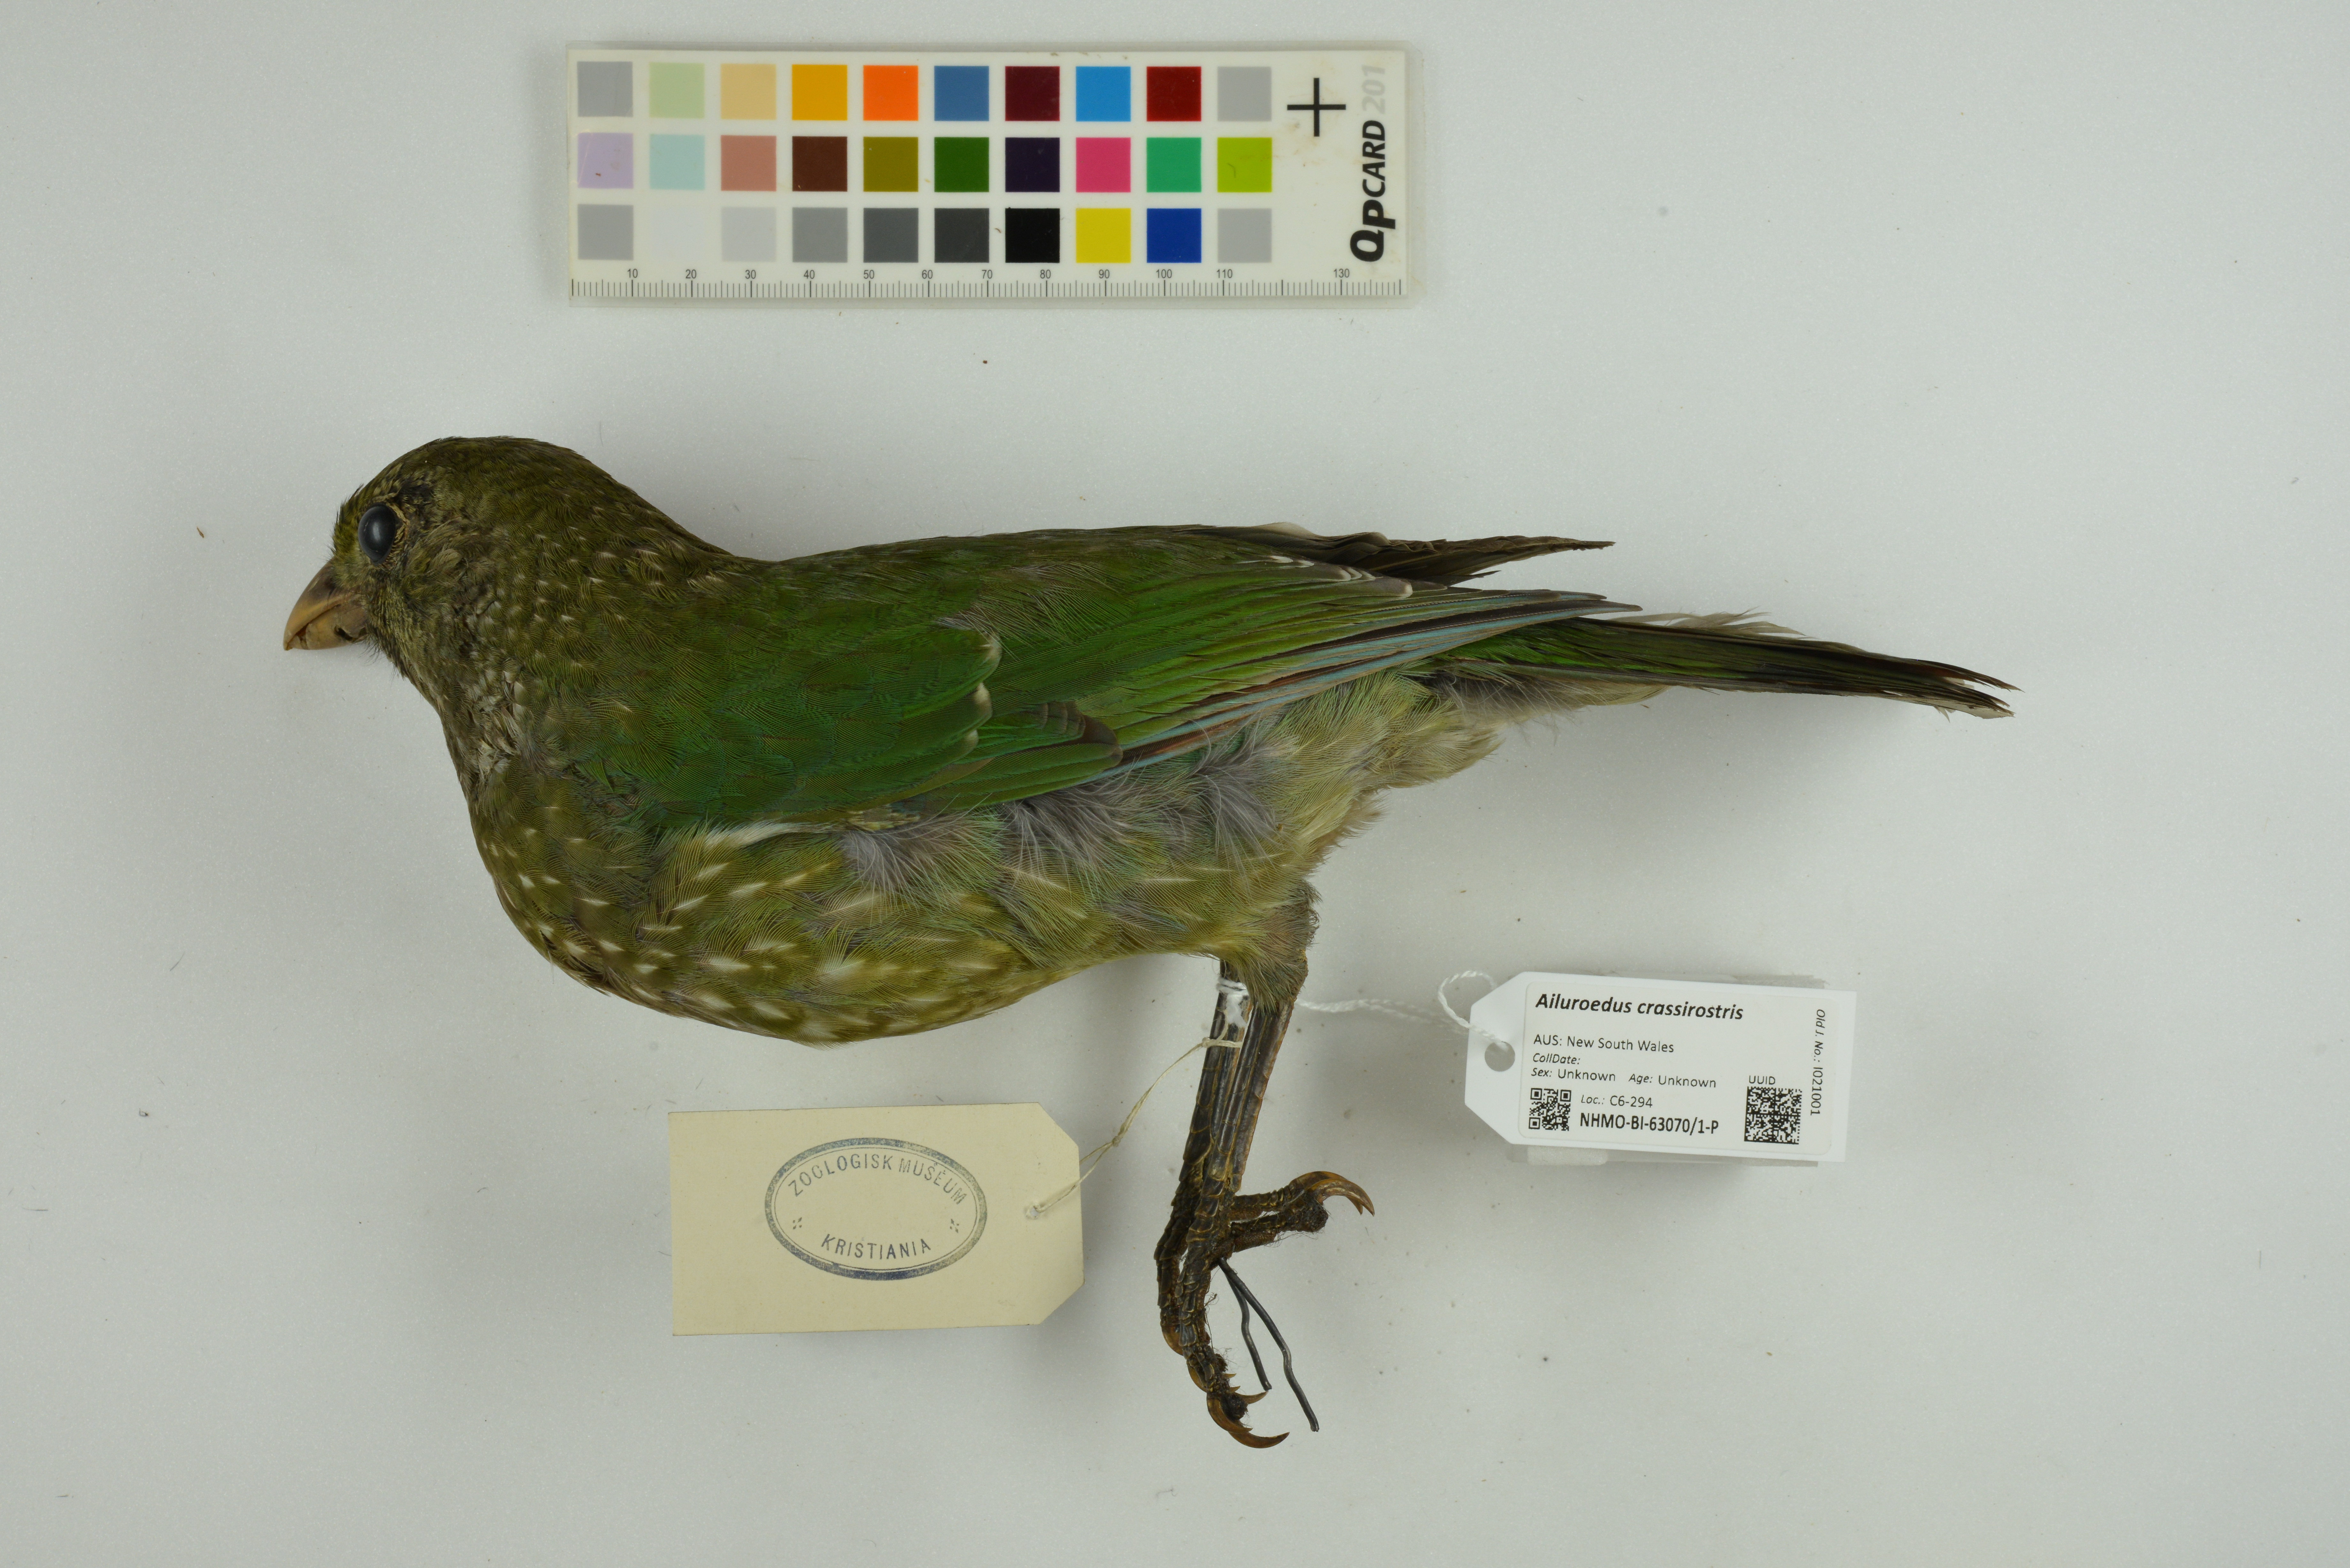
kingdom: Animalia
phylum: Chordata
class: Aves
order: Passeriformes
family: Ptilonorhynchidae
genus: Ailuroedus
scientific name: Ailuroedus crassirostris
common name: Green catbird
